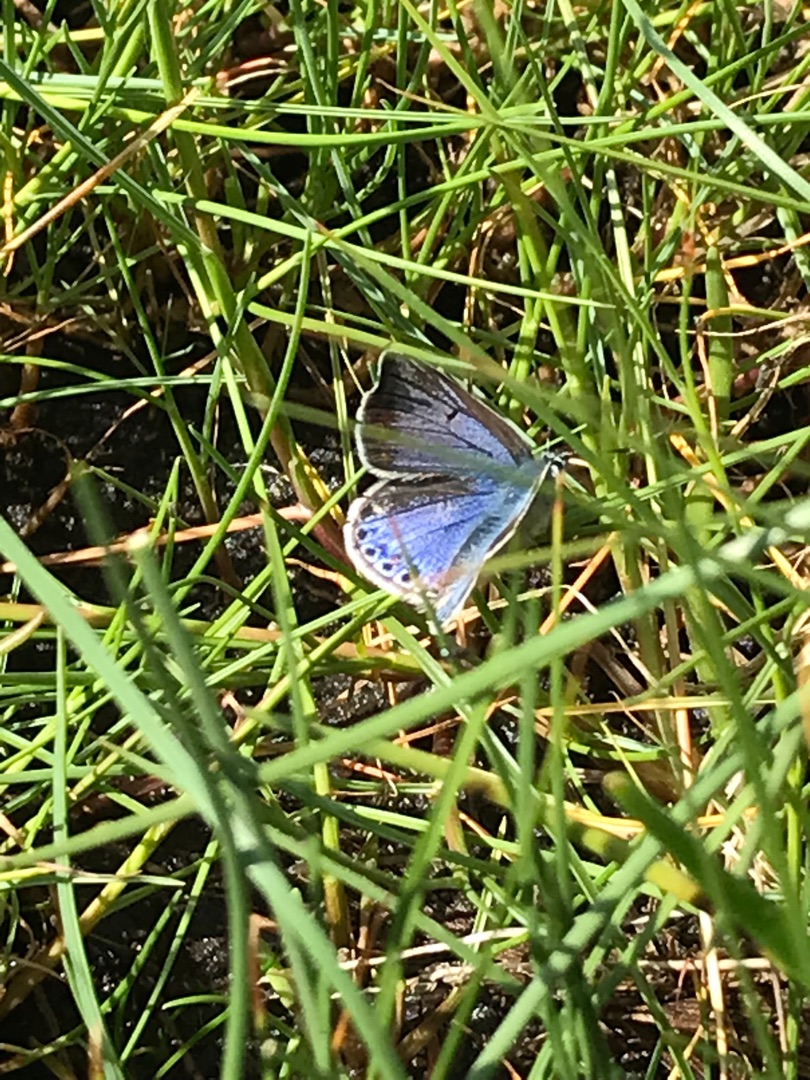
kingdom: Animalia
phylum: Arthropoda
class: Insecta
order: Lepidoptera
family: Lycaenidae
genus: Celastrina
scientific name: Celastrina argiolus
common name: Skovblåfugl
